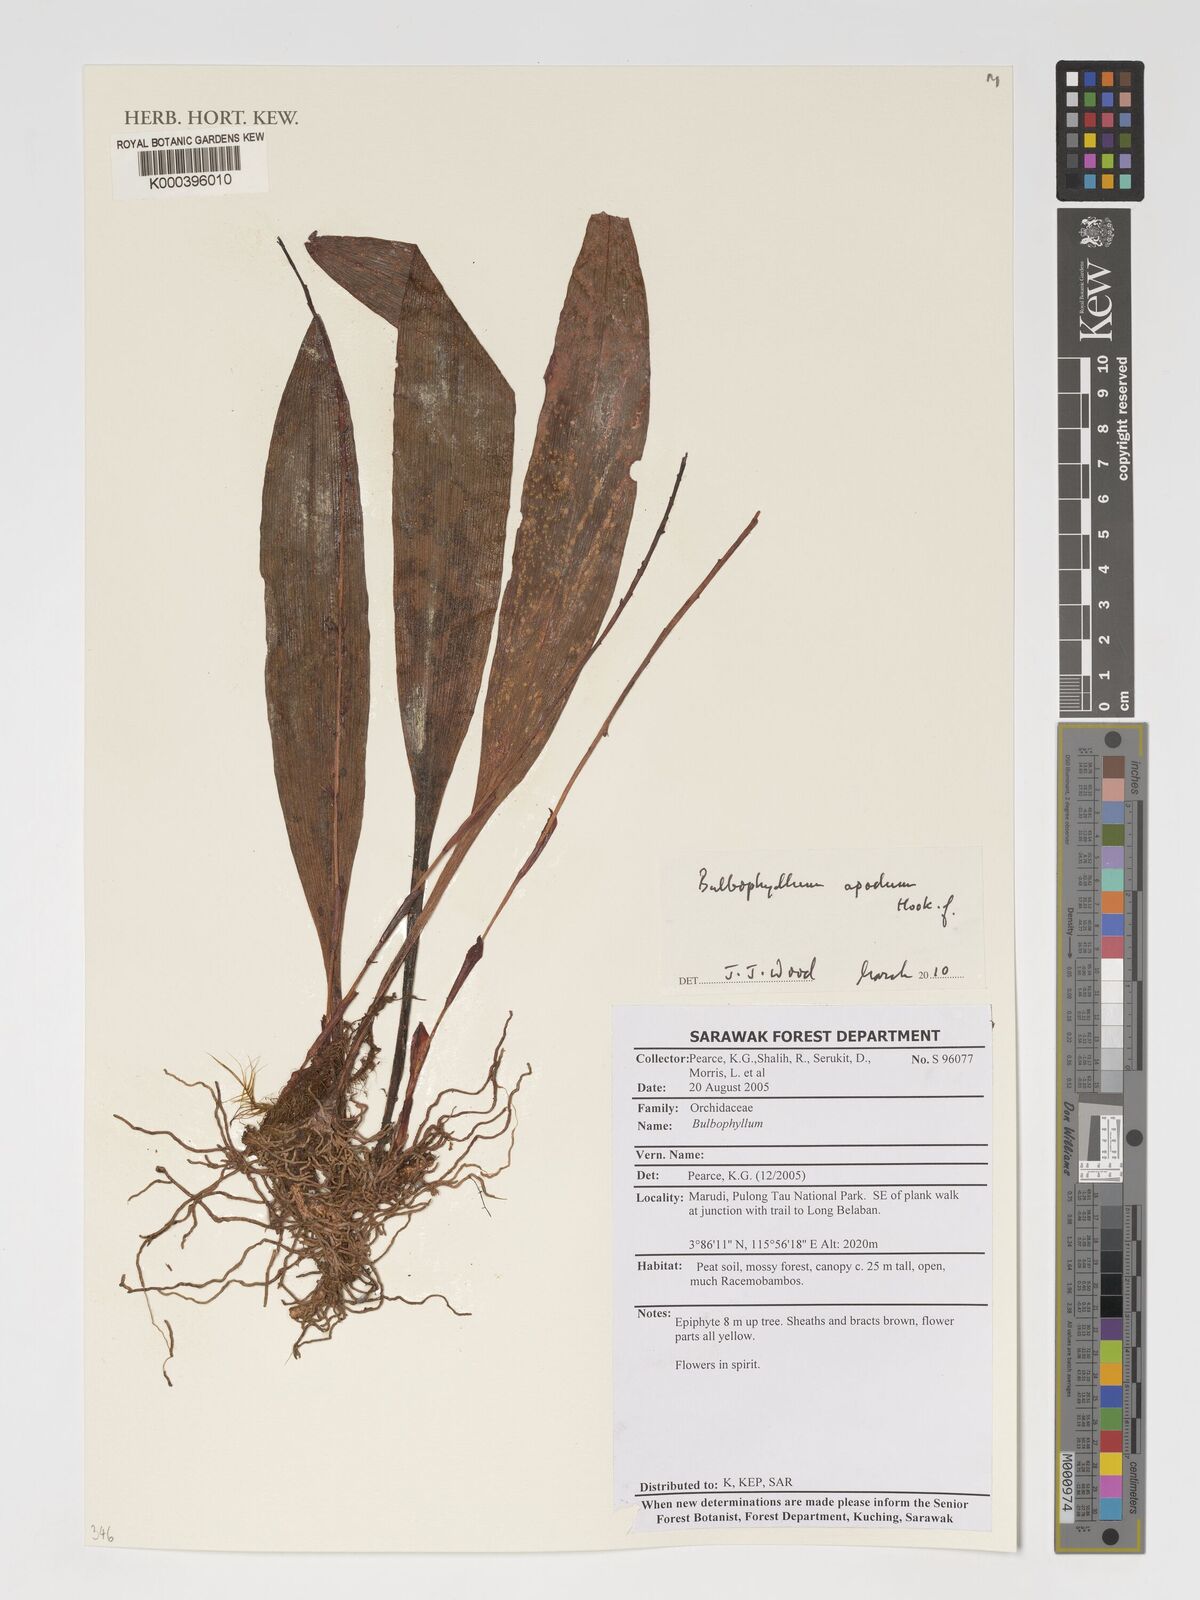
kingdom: Plantae
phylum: Tracheophyta
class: Liliopsida
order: Asparagales
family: Orchidaceae
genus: Bulbophyllum
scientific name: Bulbophyllum apodum
